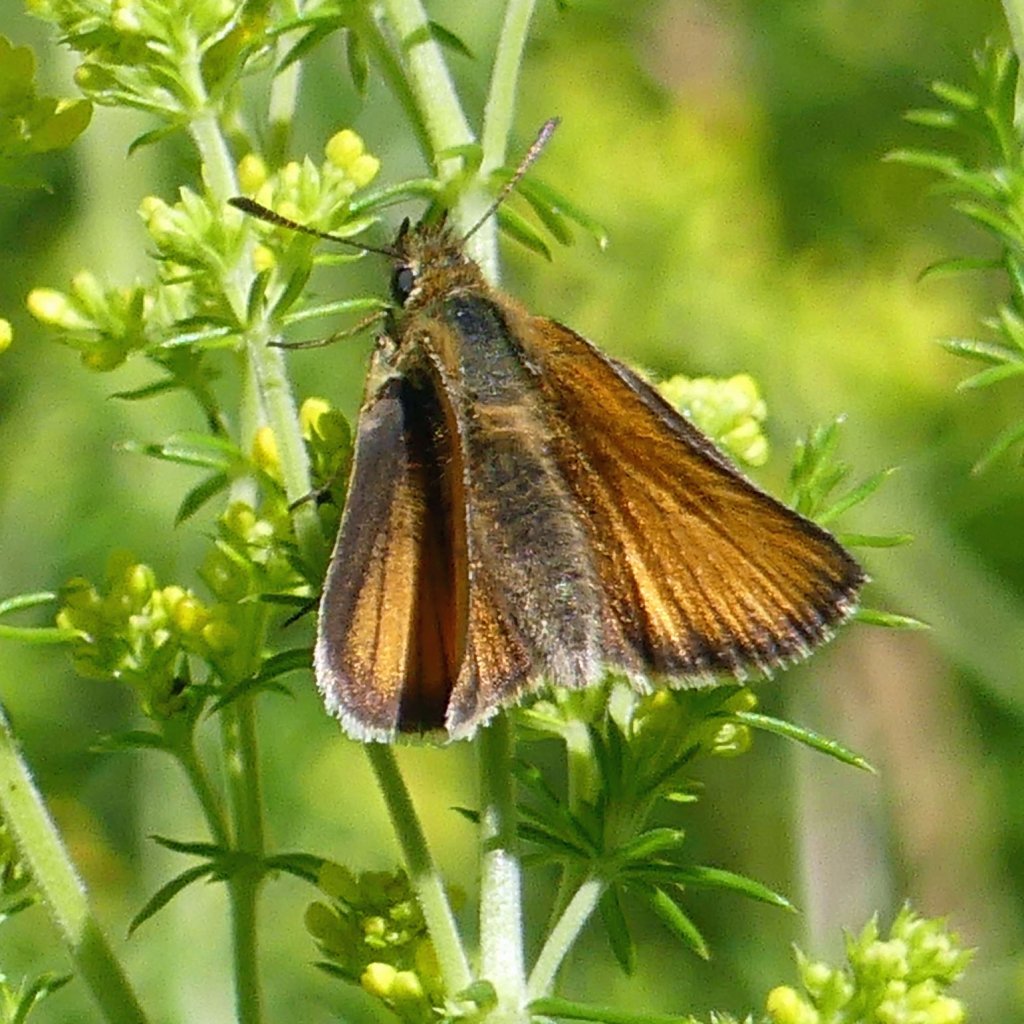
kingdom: Animalia
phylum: Arthropoda
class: Insecta
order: Lepidoptera
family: Hesperiidae
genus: Thymelicus
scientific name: Thymelicus lineola
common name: European Skipper
